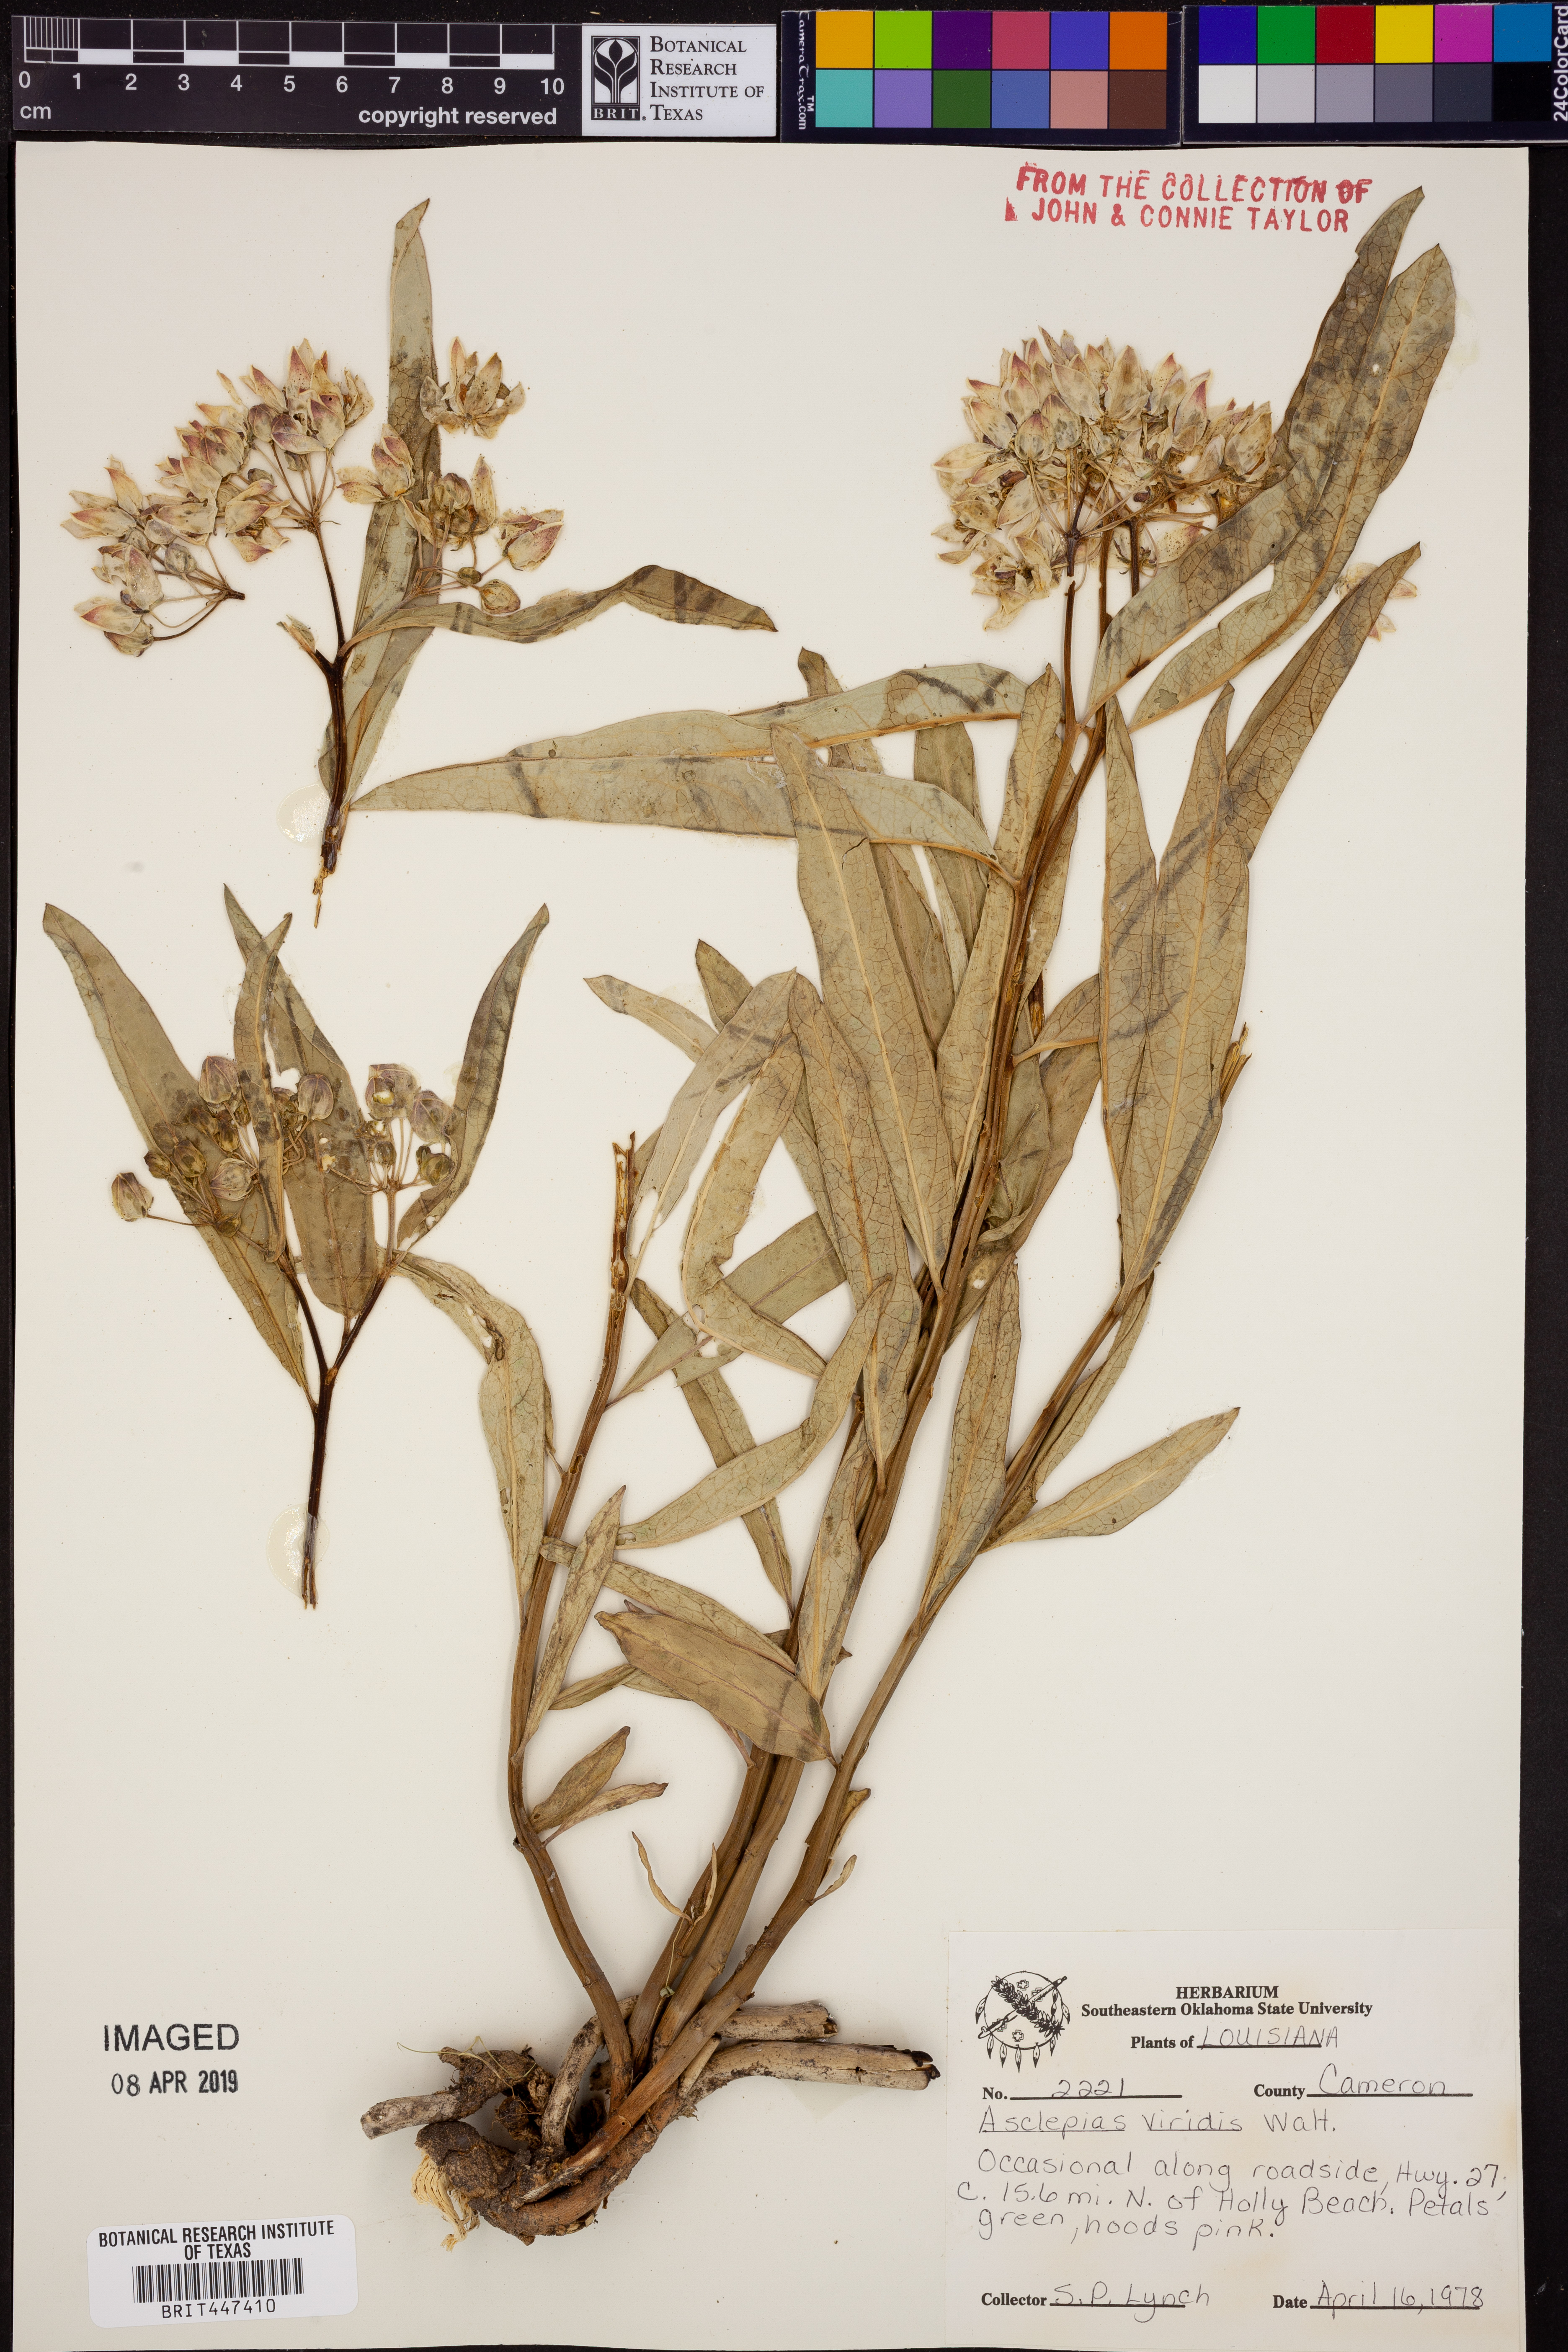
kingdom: Plantae
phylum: Tracheophyta
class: Magnoliopsida
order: Gentianales
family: Apocynaceae
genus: Asclepias
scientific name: Asclepias viridis
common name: Antelope-horns
